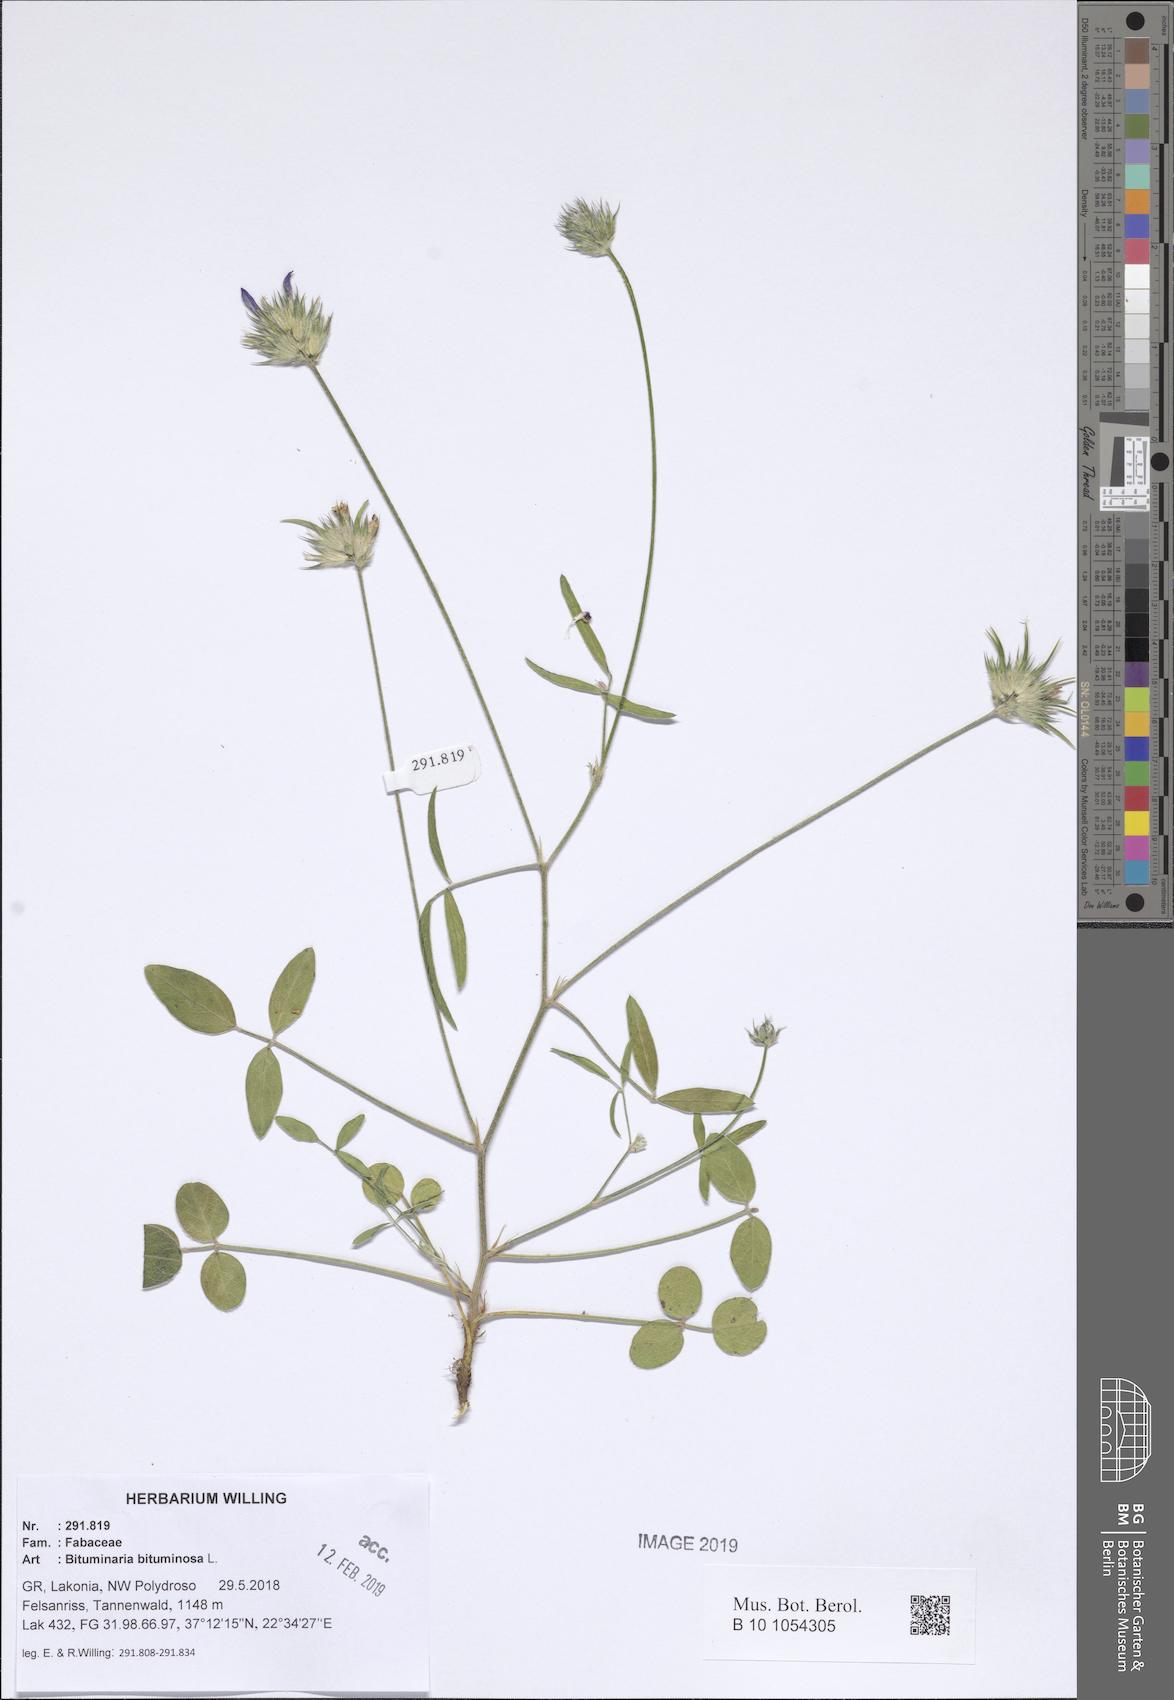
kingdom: Plantae
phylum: Tracheophyta
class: Magnoliopsida
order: Fabales
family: Fabaceae
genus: Bituminaria
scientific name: Bituminaria bituminosa
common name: Arabian pea
